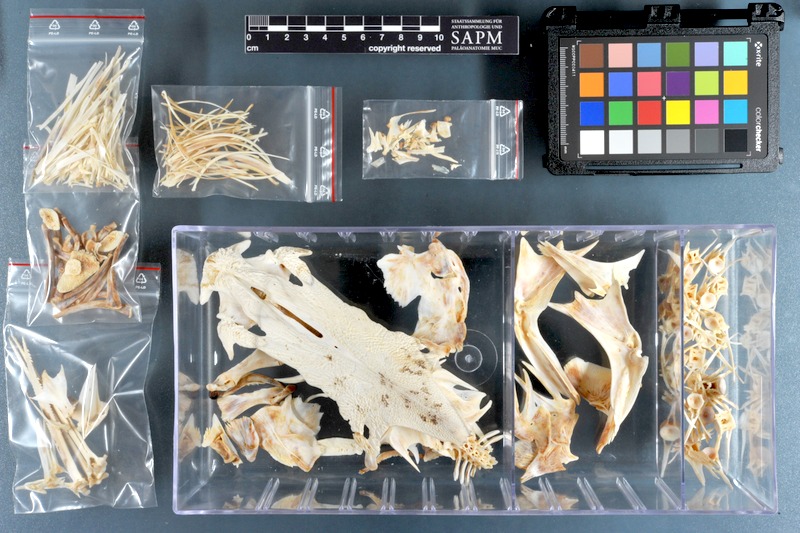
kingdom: Animalia
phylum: Chordata
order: Siluriformes
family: Ariidae
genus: Netuma
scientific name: Netuma thalassina
